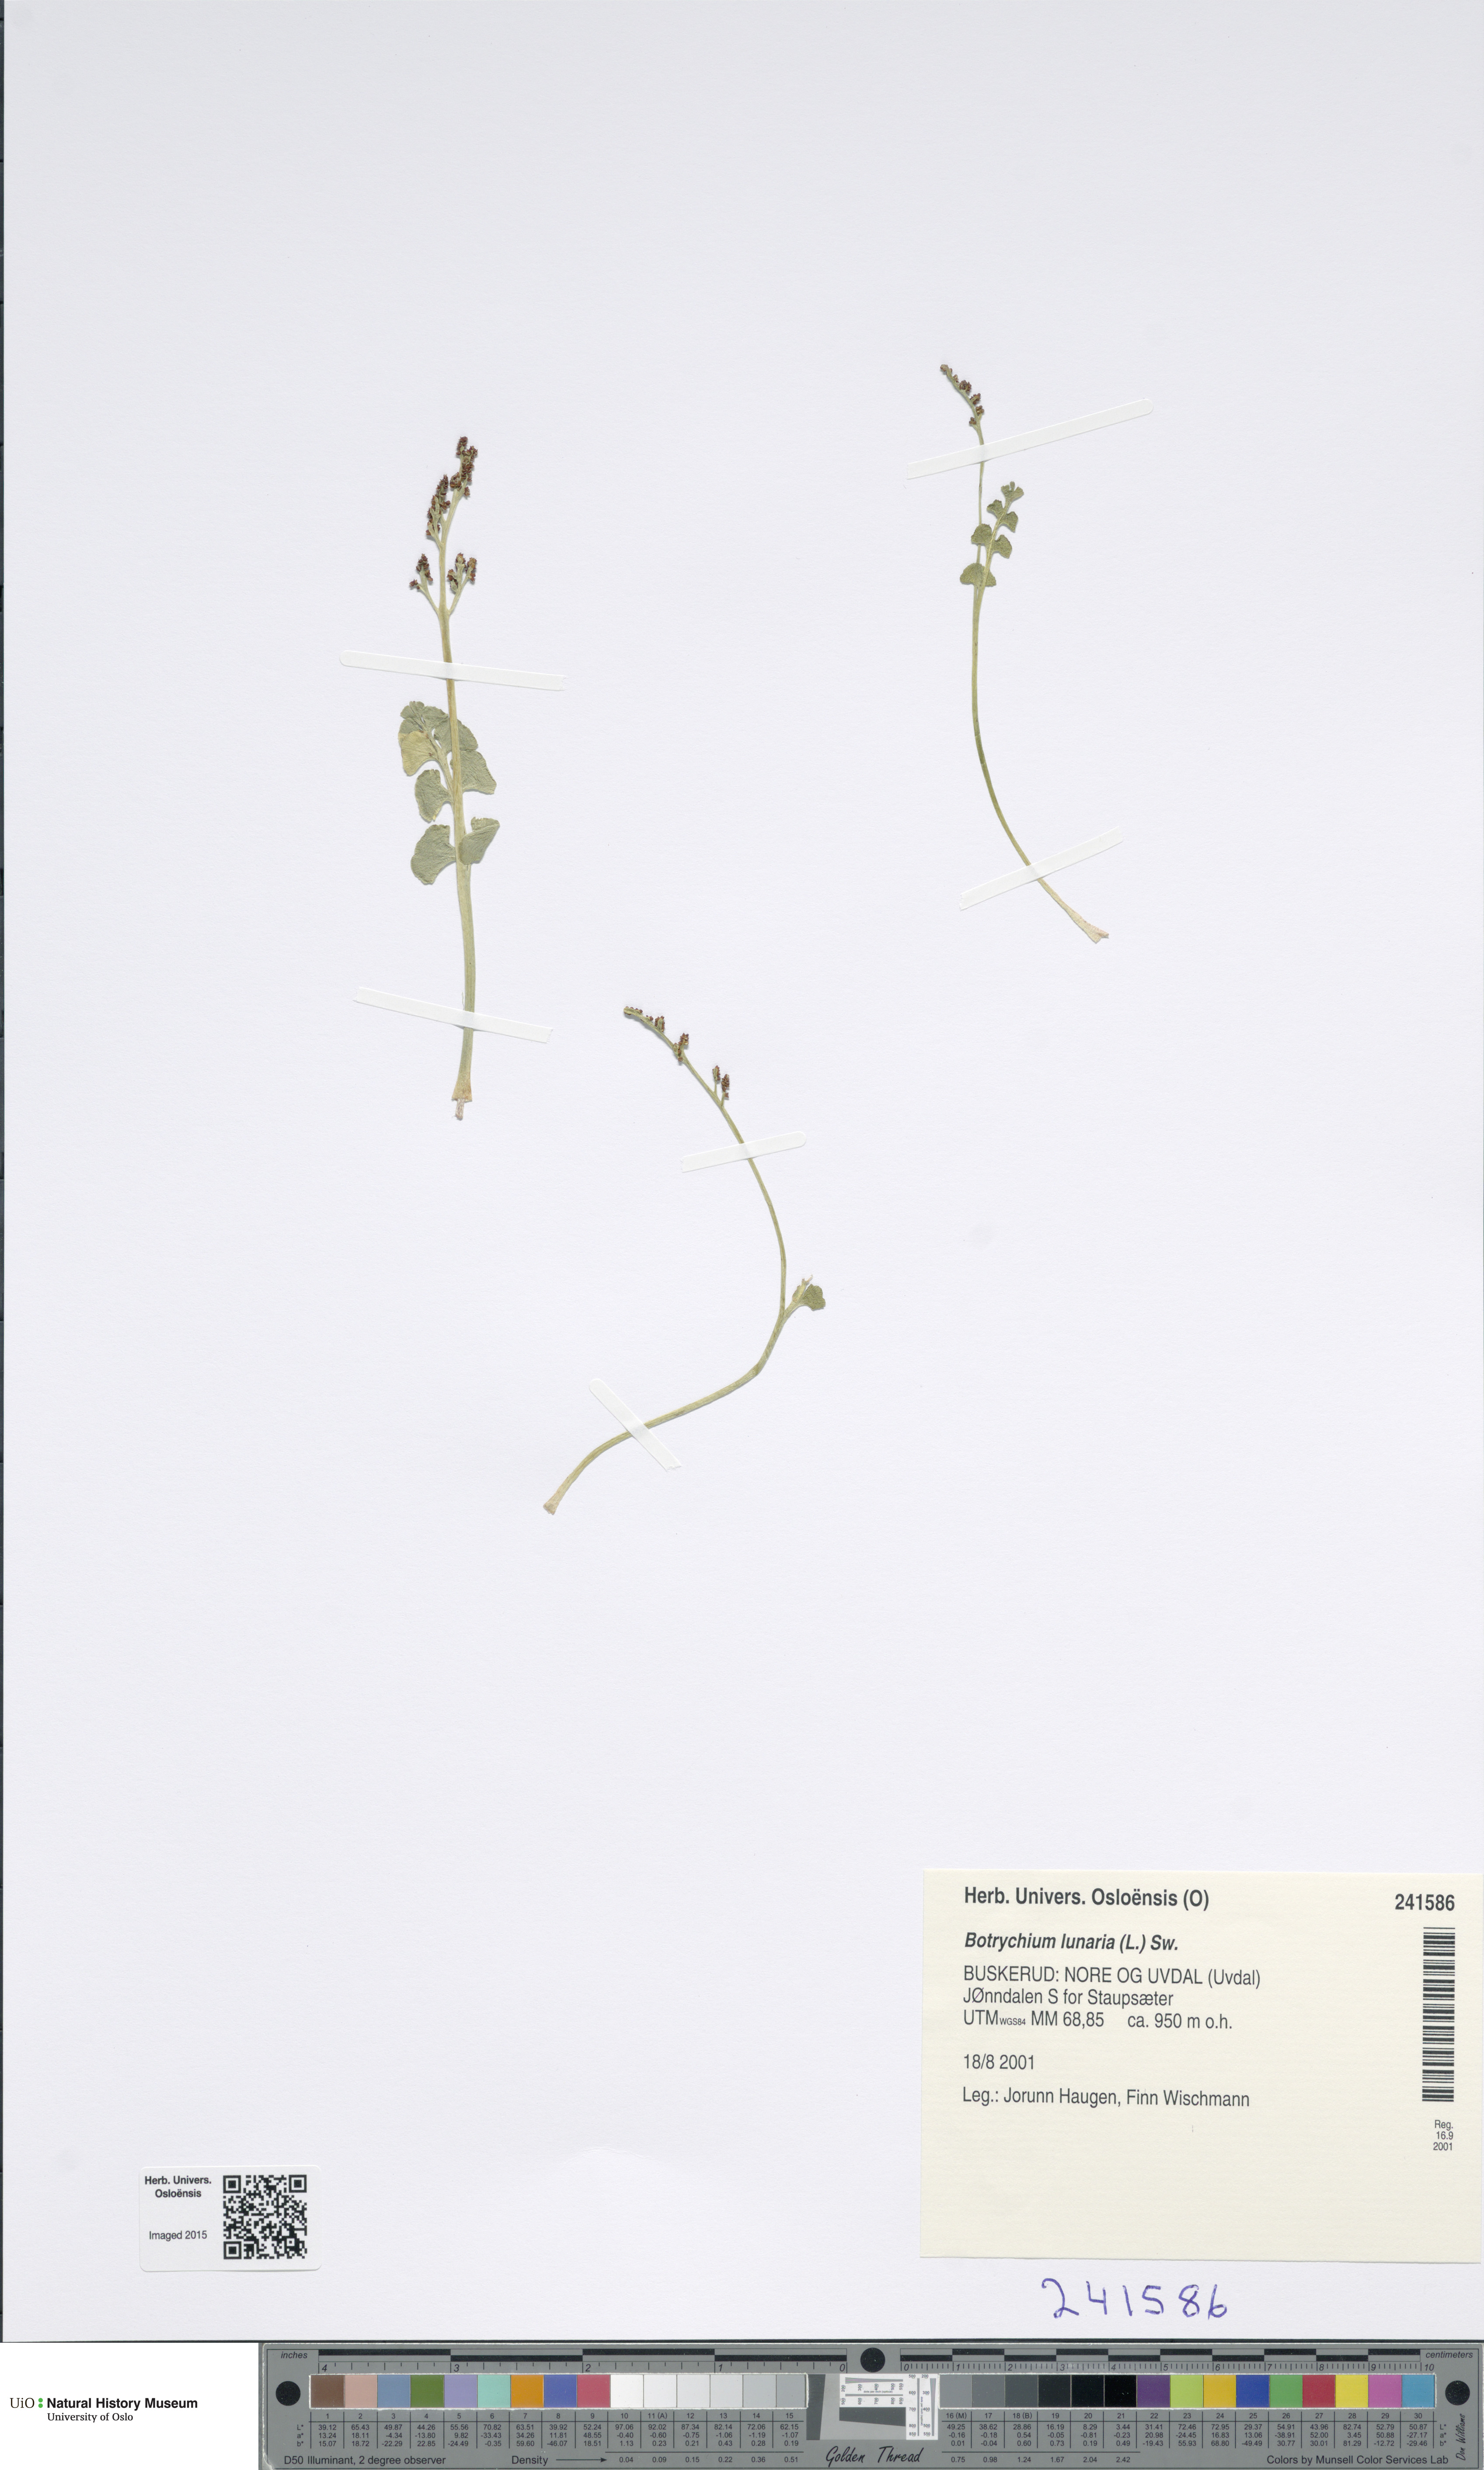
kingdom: Plantae
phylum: Tracheophyta
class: Polypodiopsida
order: Ophioglossales
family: Ophioglossaceae
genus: Botrychium
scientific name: Botrychium lunaria
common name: Moonwort
